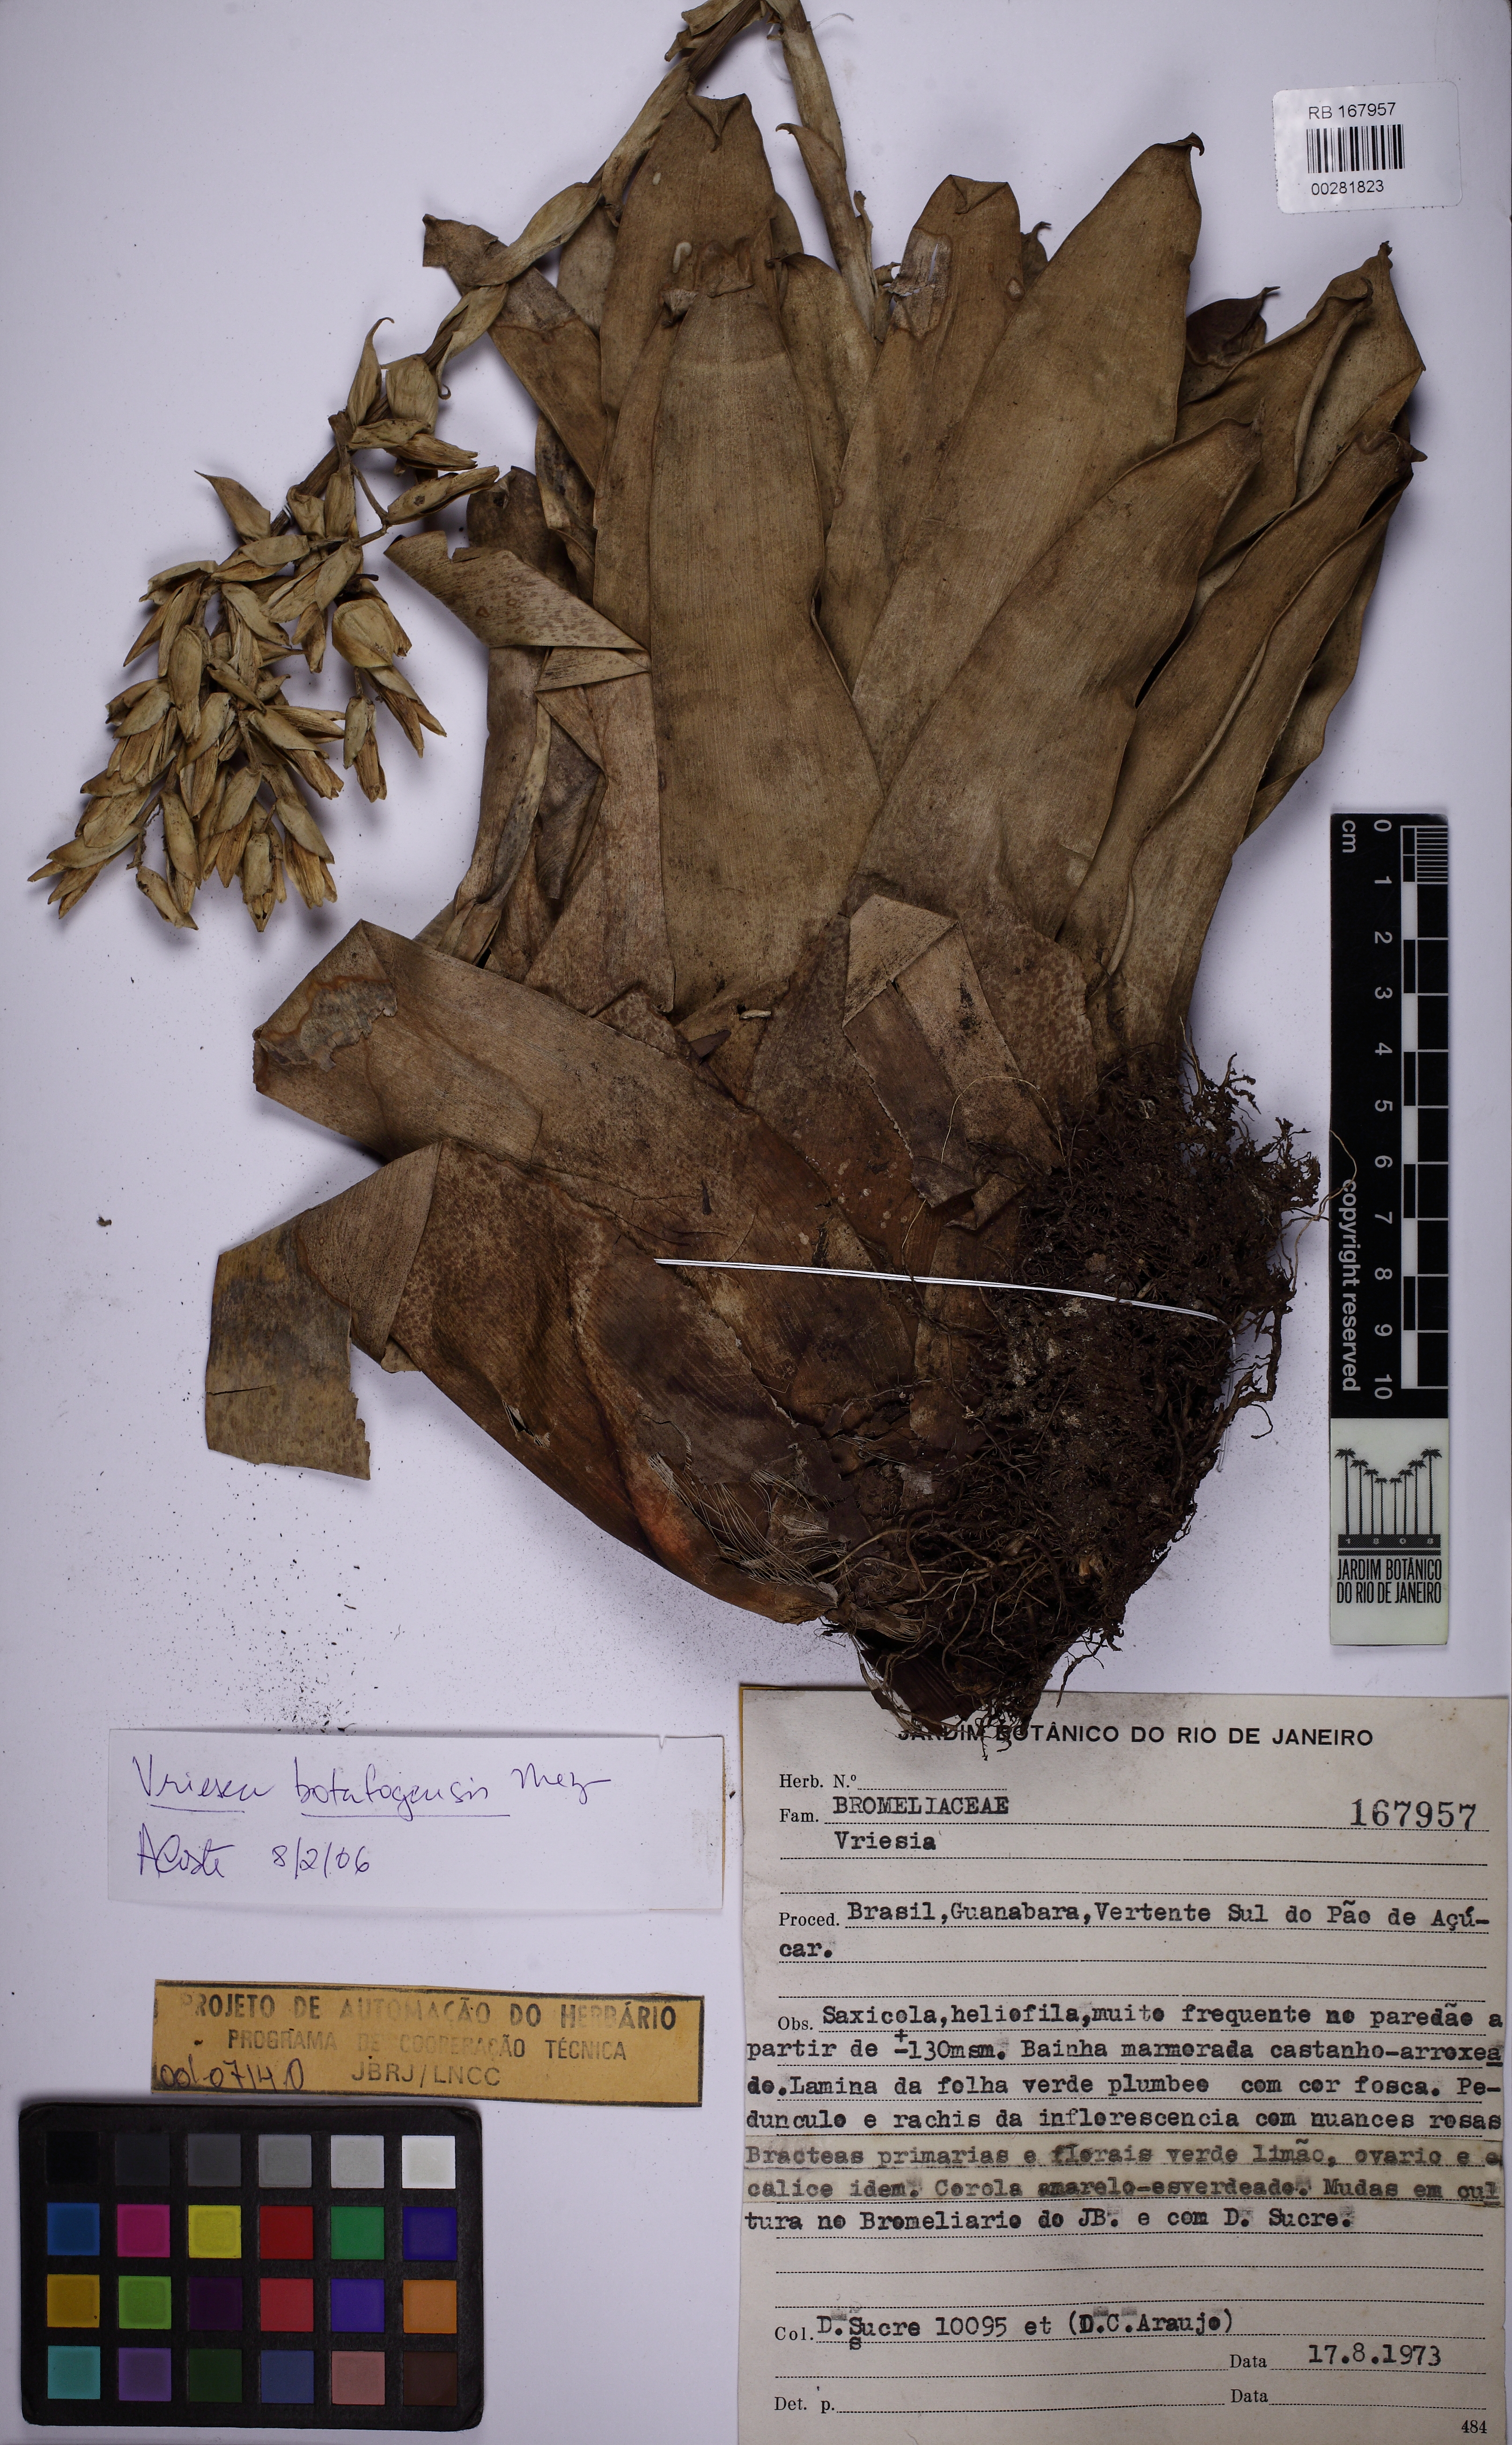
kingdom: Plantae
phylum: Tracheophyta
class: Liliopsida
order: Poales
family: Bromeliaceae
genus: Vriesea
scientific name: Vriesea saundersii
